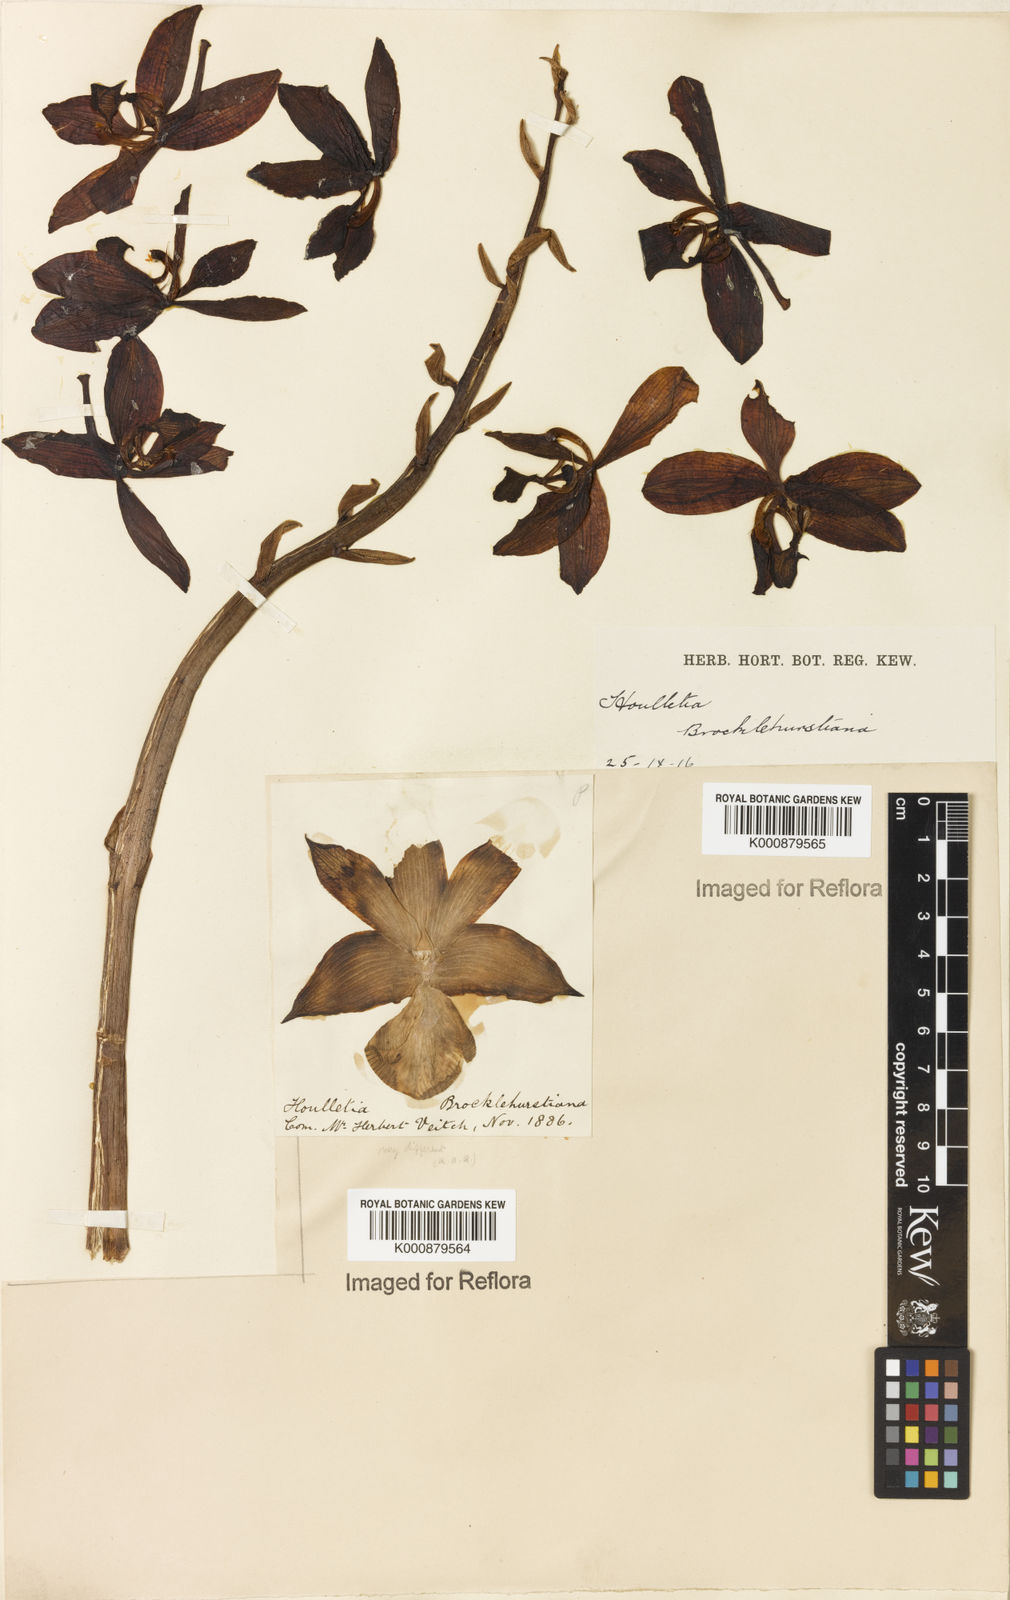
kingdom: Plantae
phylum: Tracheophyta
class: Liliopsida
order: Asparagales
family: Orchidaceae
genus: Houlletia
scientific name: Houlletia brocklehurstiana
